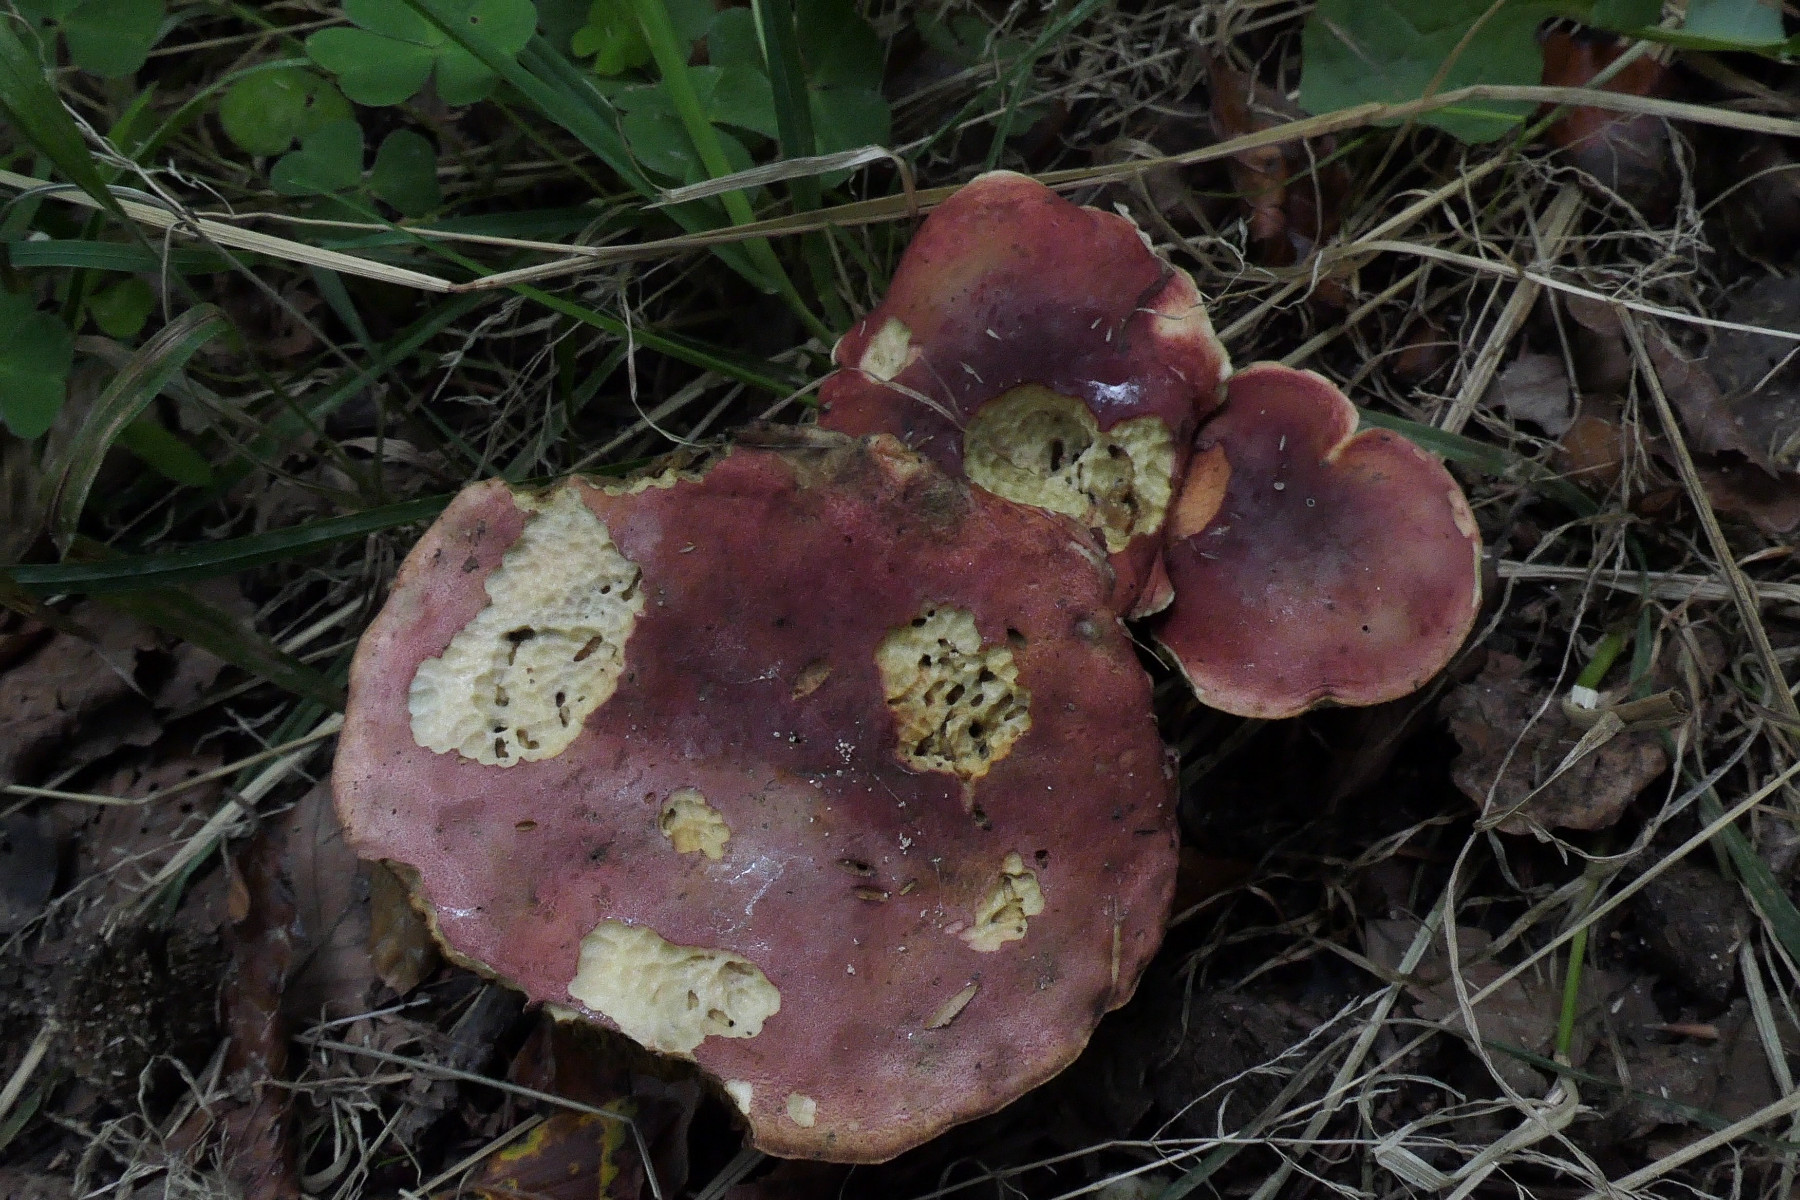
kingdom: Fungi
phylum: Basidiomycota
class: Agaricomycetes
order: Boletales
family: Boletaceae
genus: Hortiboletus
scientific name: Hortiboletus rubellus
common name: blodrød rørhat
